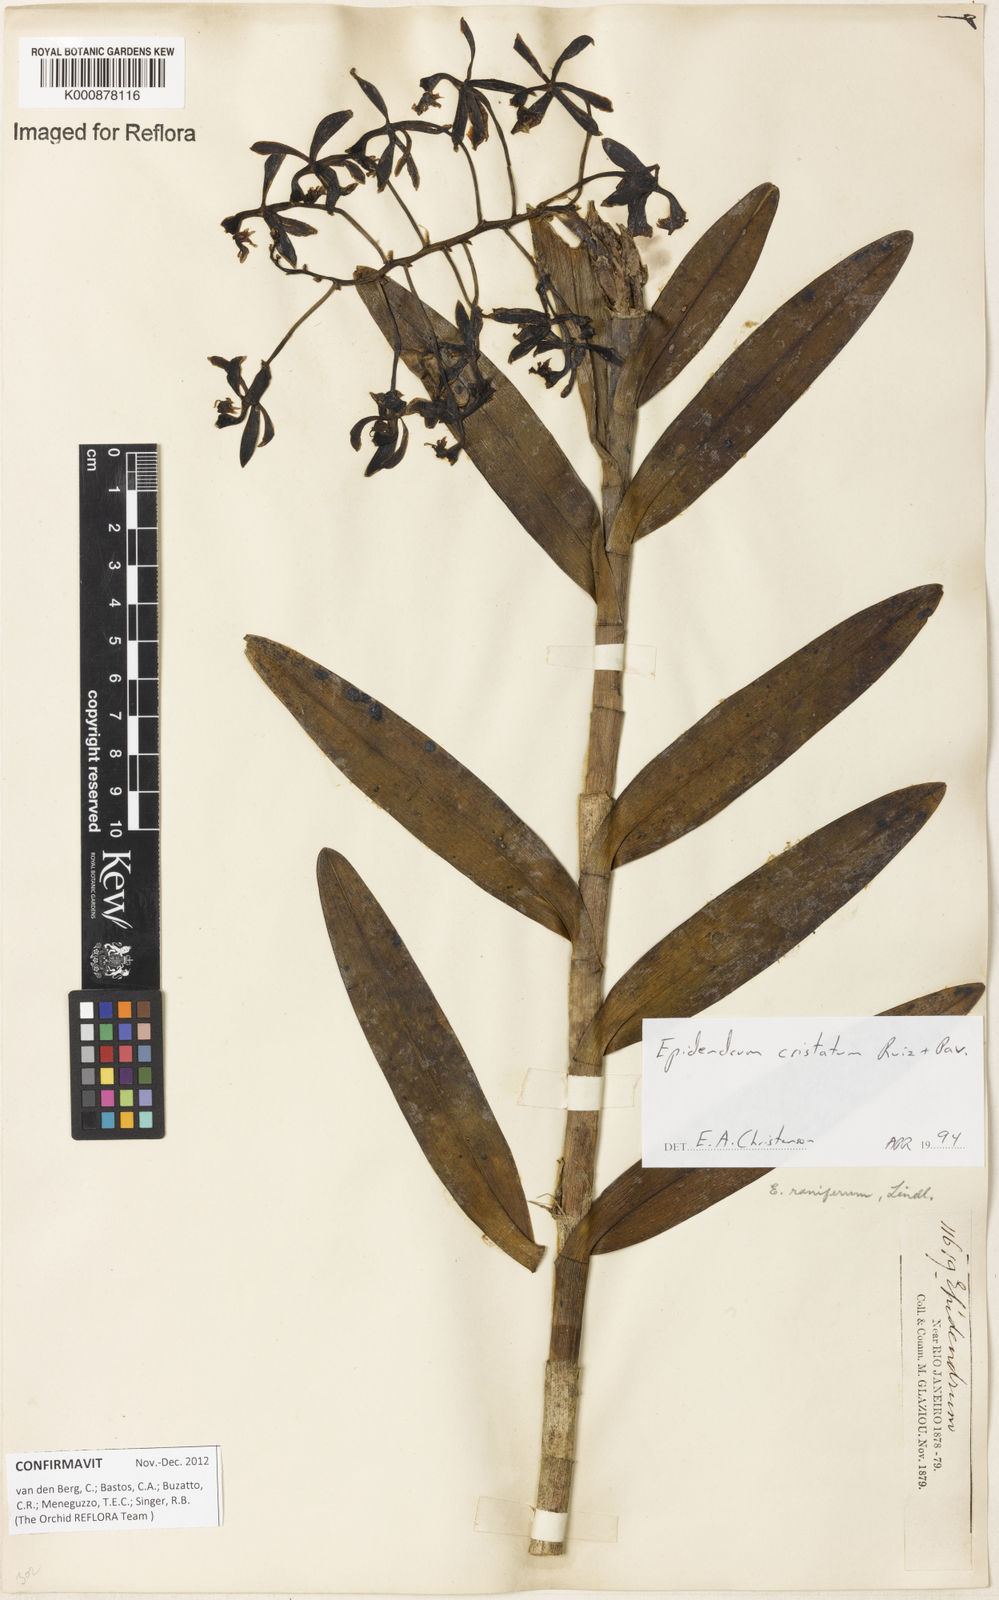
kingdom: Plantae
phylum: Tracheophyta
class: Liliopsida
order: Asparagales
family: Orchidaceae
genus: Epidendrum
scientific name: Epidendrum cristatum
